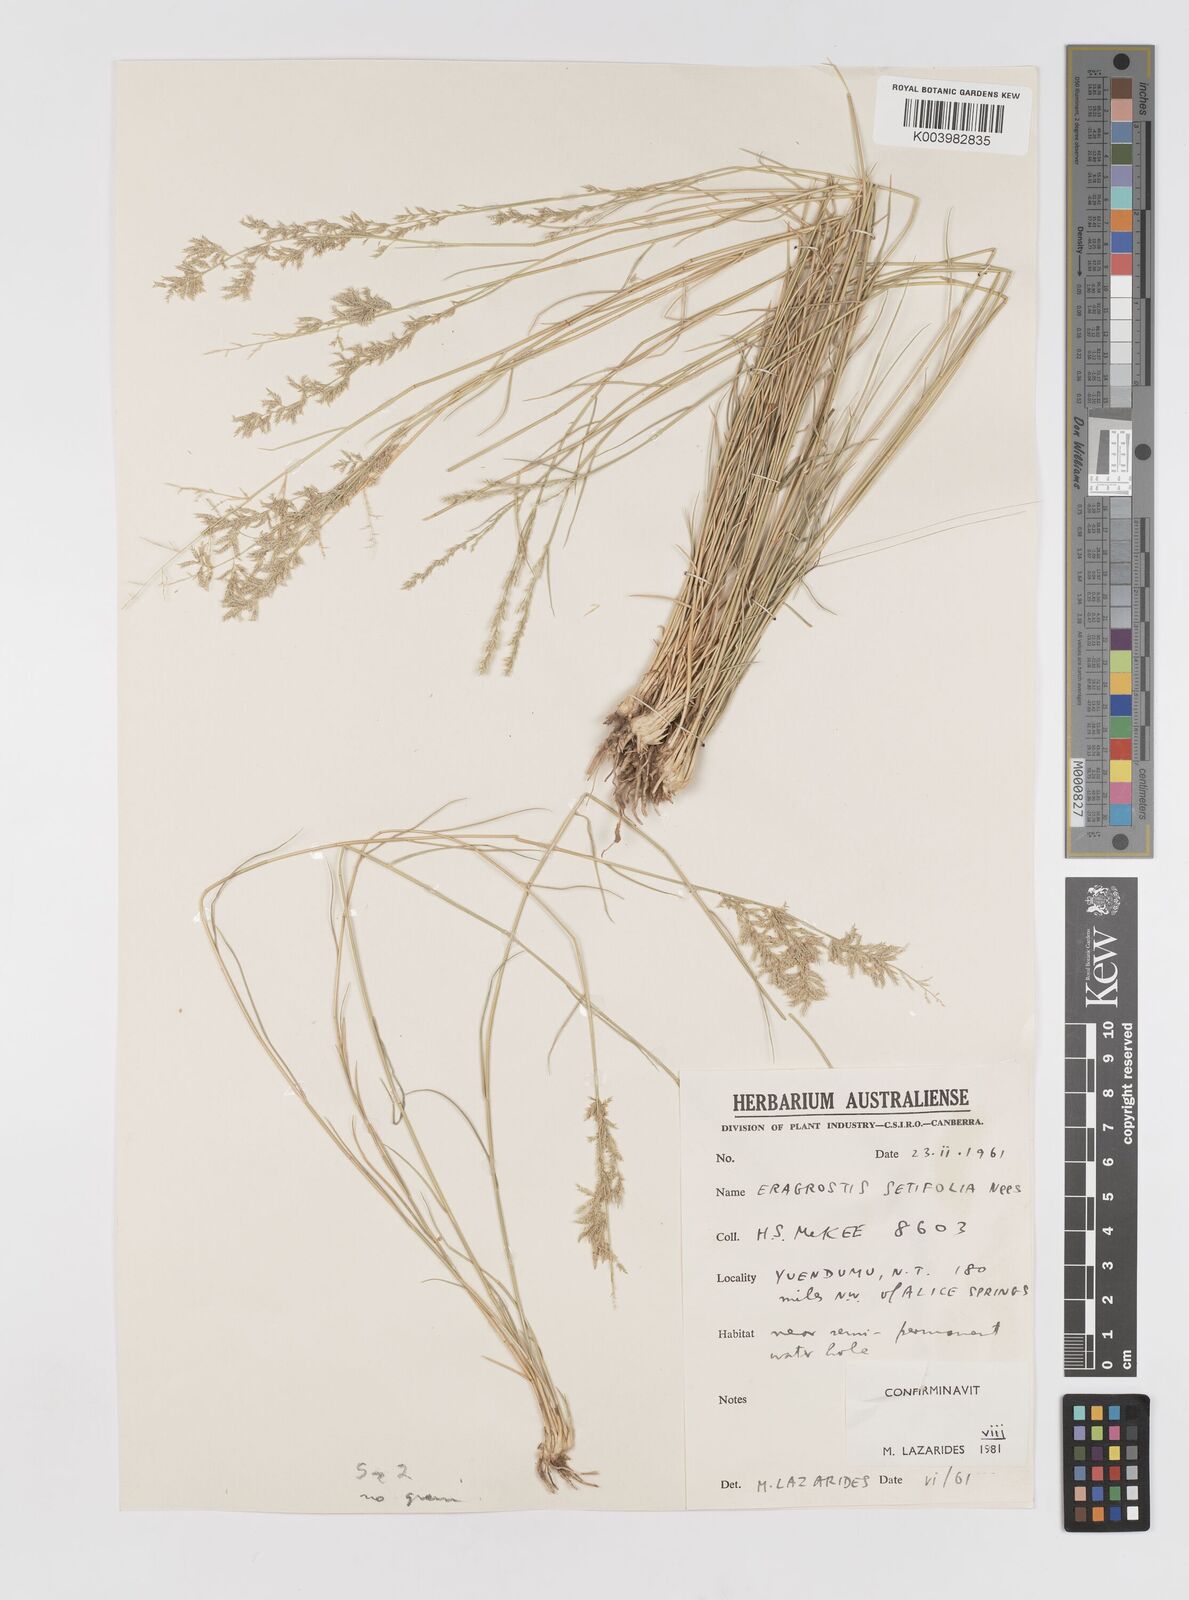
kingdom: Plantae
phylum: Tracheophyta
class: Liliopsida
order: Poales
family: Poaceae
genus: Eragrostis
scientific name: Eragrostis setifolia
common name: Bristleleaf lovegrass
